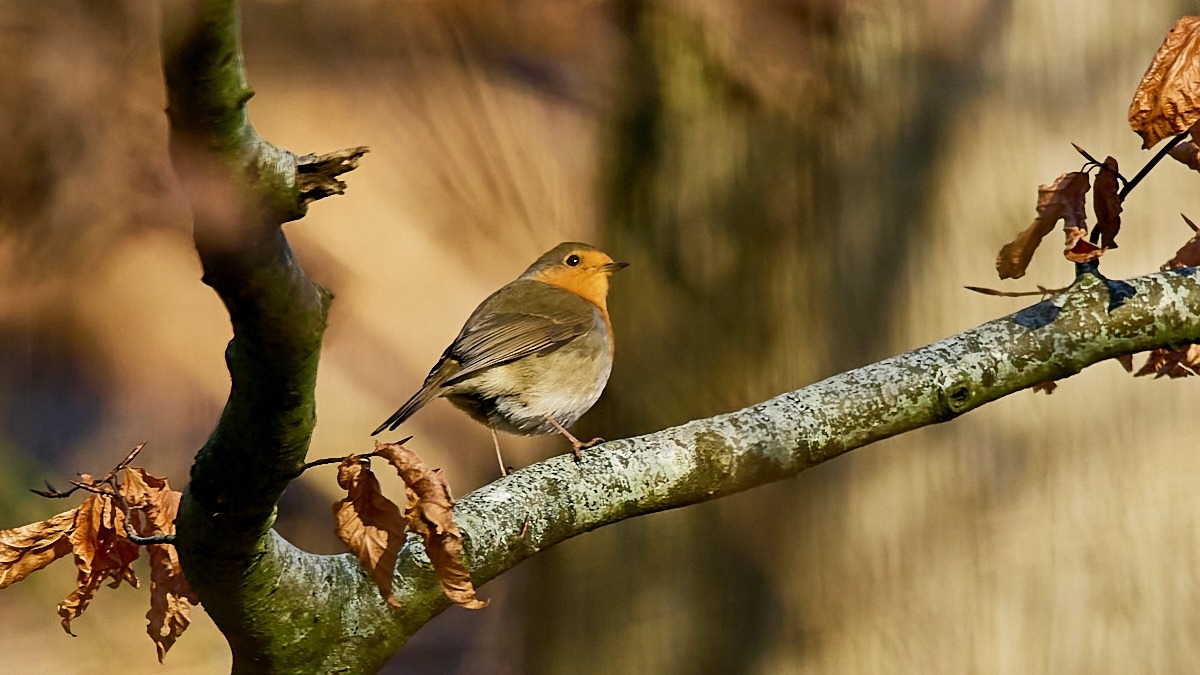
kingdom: Animalia
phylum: Chordata
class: Aves
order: Passeriformes
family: Muscicapidae
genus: Erithacus
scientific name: Erithacus rubecula
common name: Rødhals/rødkælk
